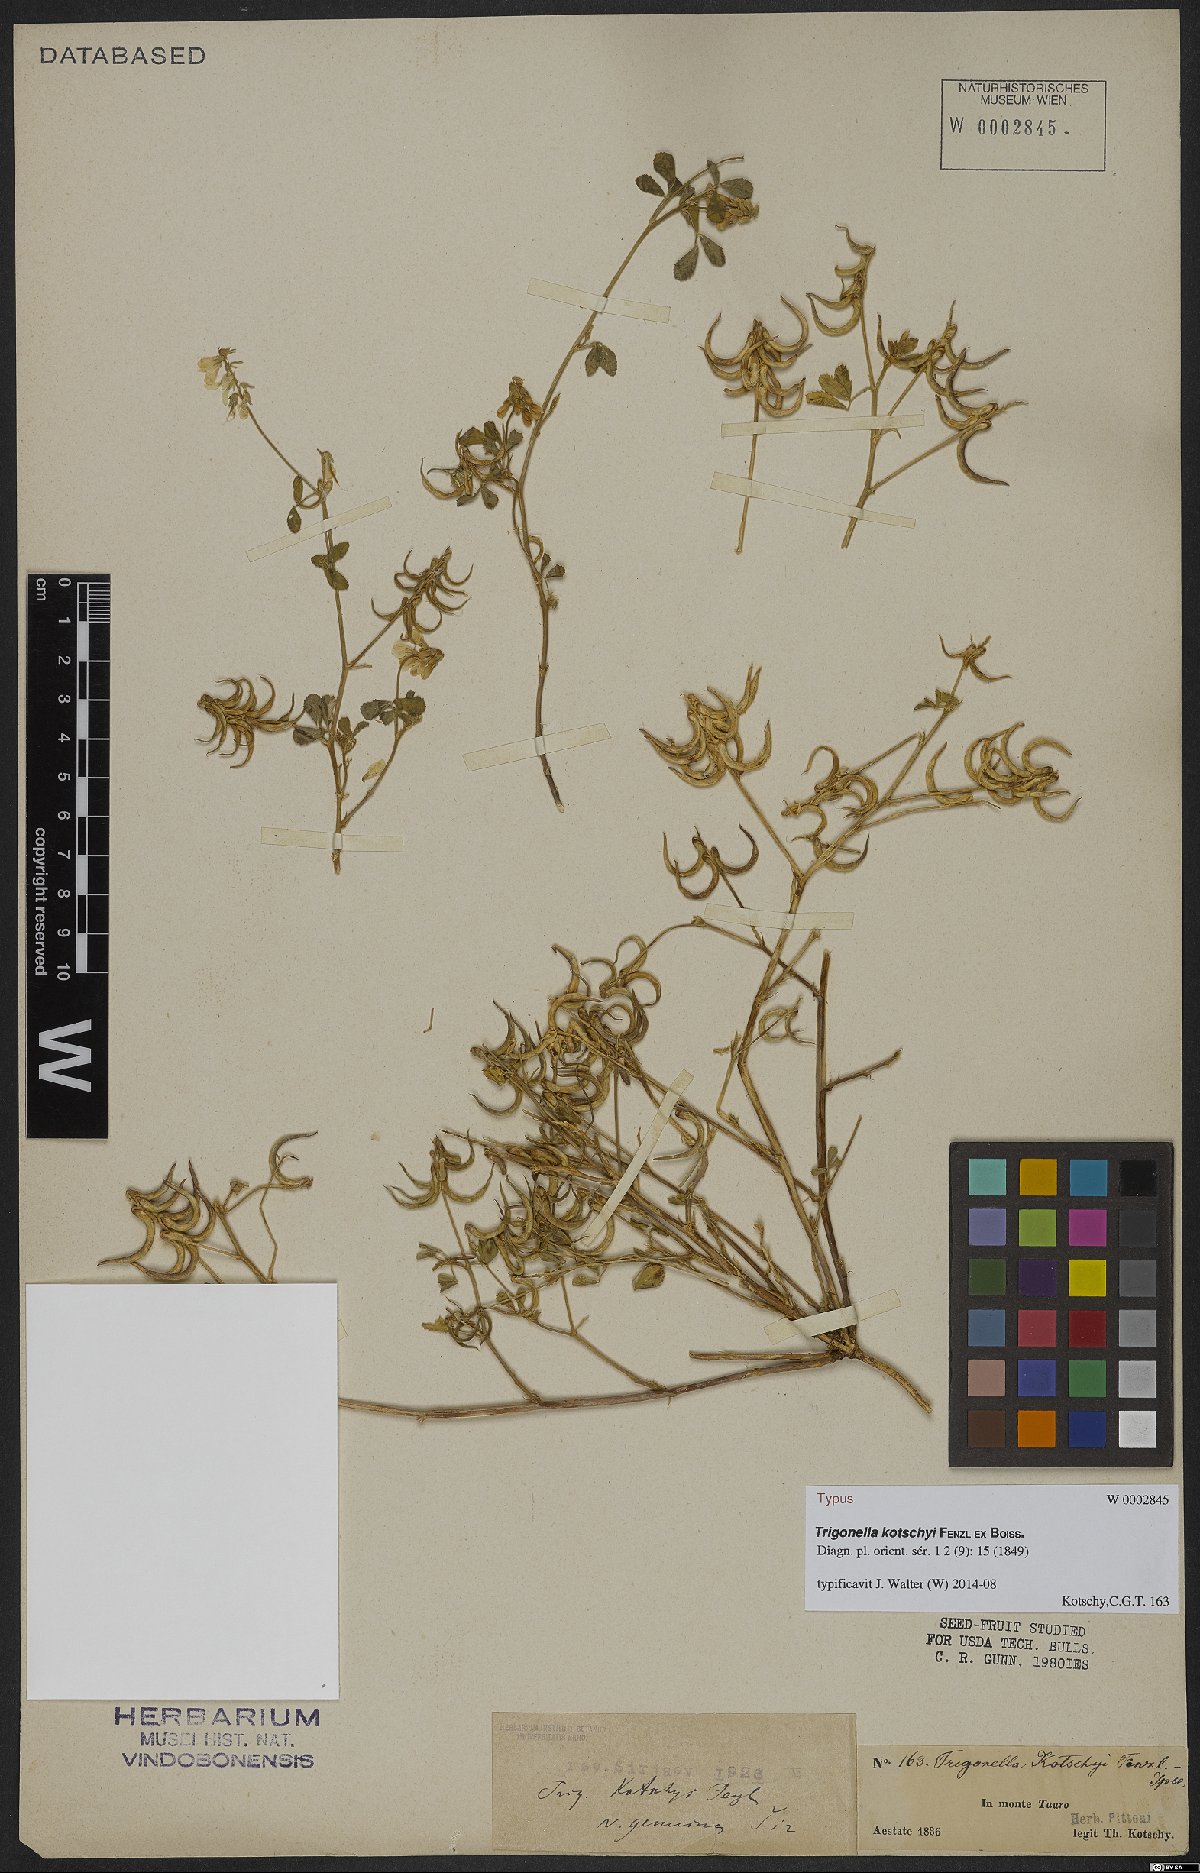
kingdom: Plantae
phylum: Tracheophyta
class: Magnoliopsida
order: Fabales
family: Fabaceae
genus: Trigonella
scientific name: Trigonella kotschyi
